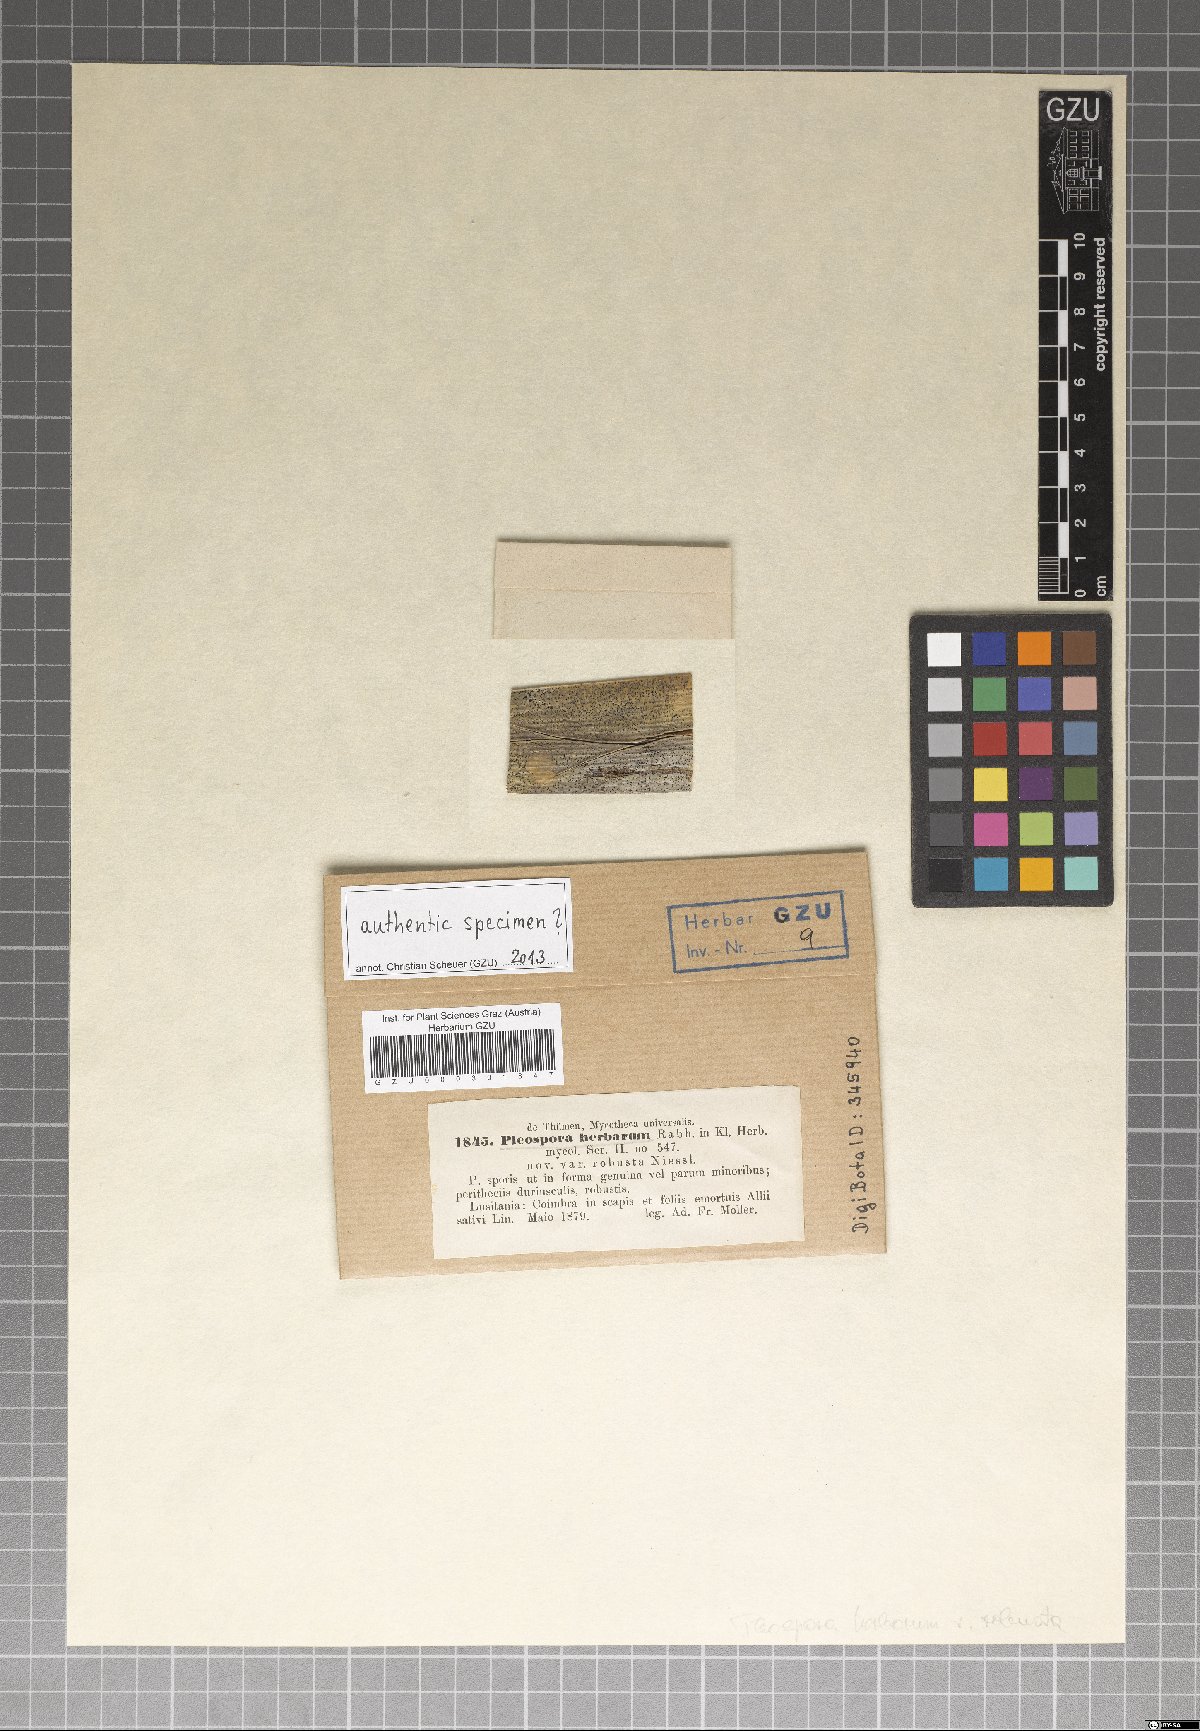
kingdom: Fungi
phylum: Ascomycota
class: Dothideomycetes
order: Pleosporales
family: Pleosporaceae
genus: Stemphylium
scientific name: Stemphylium vesicarium
